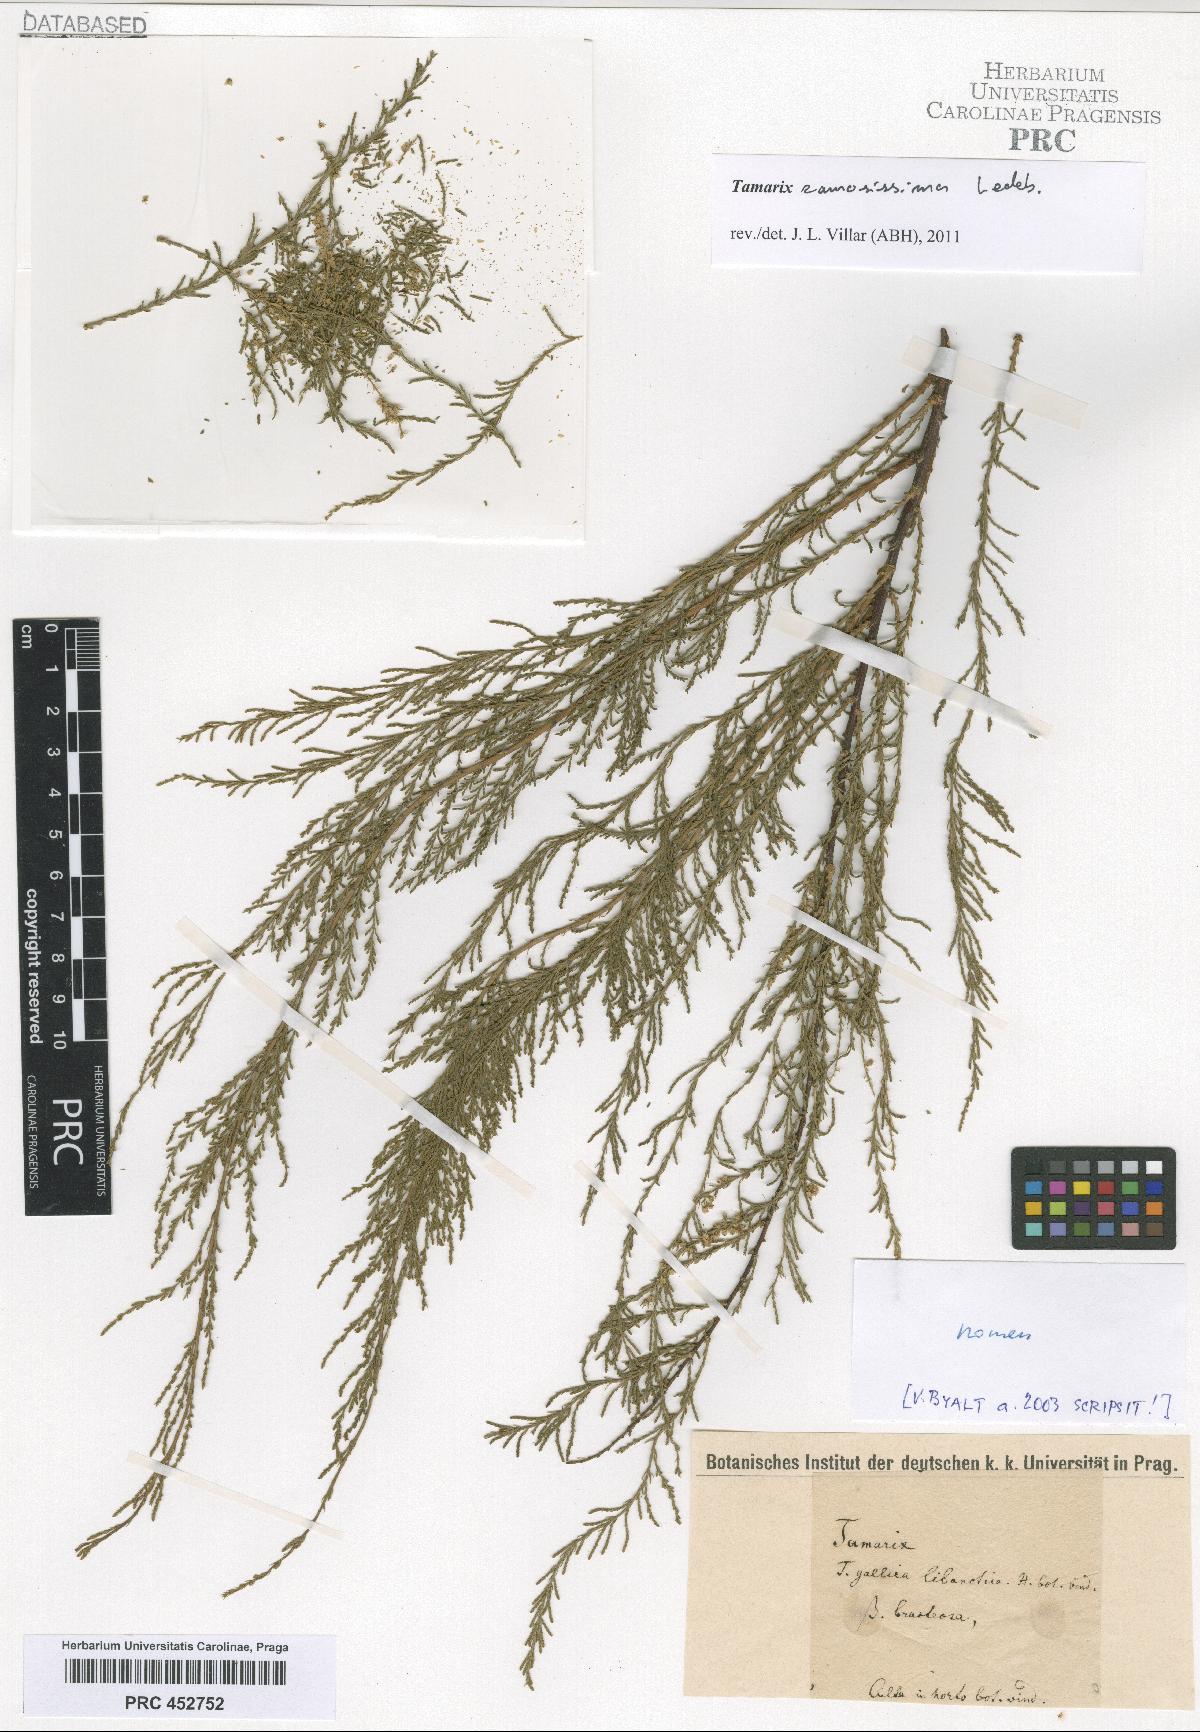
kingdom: Plantae
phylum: Tracheophyta
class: Magnoliopsida
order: Caryophyllales
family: Tamaricaceae
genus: Tamarix
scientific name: Tamarix ramosissima
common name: Pink tamarisk
